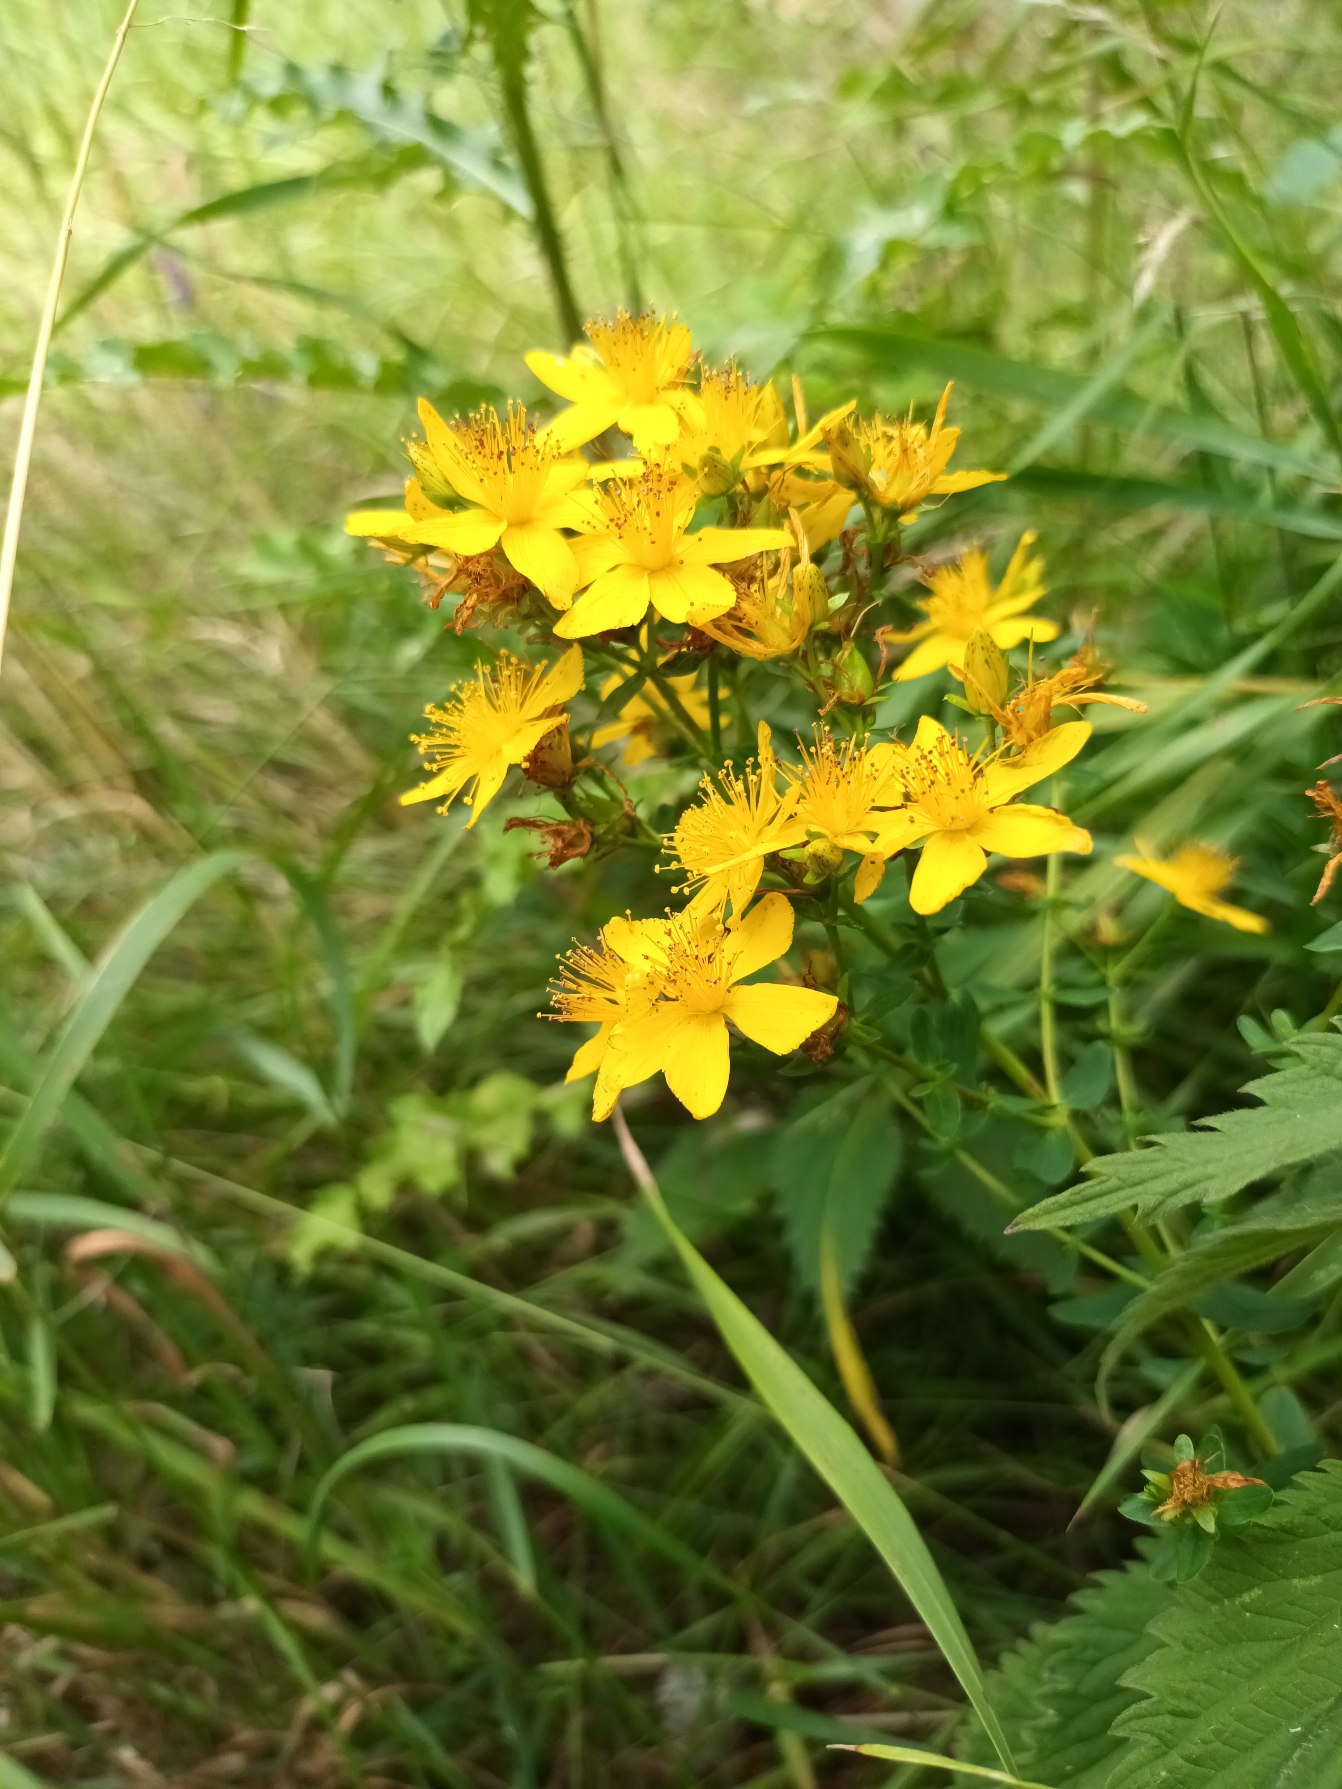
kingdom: Plantae
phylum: Tracheophyta
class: Magnoliopsida
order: Malpighiales
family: Hypericaceae
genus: Hypericum
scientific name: Hypericum perforatum
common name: Prikbladet perikon
